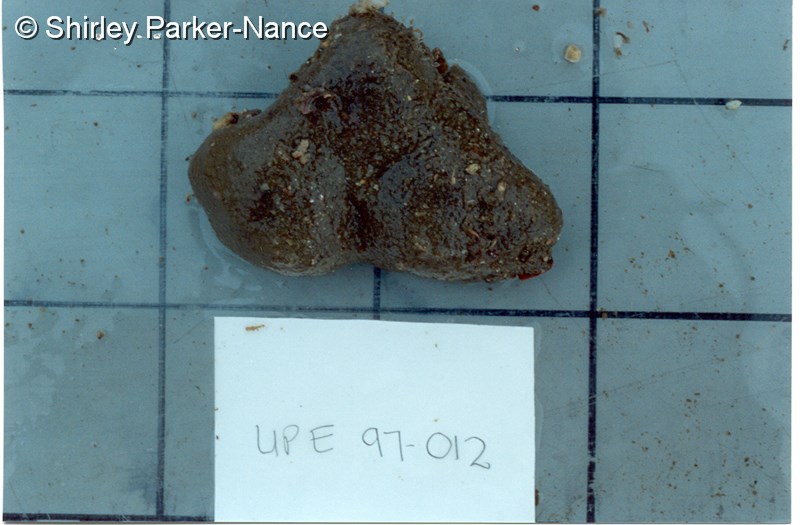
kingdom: Animalia
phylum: Chordata
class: Ascidiacea
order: Aplousobranchia
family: Polycitoridae
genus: Polycitor
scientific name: Polycitor
